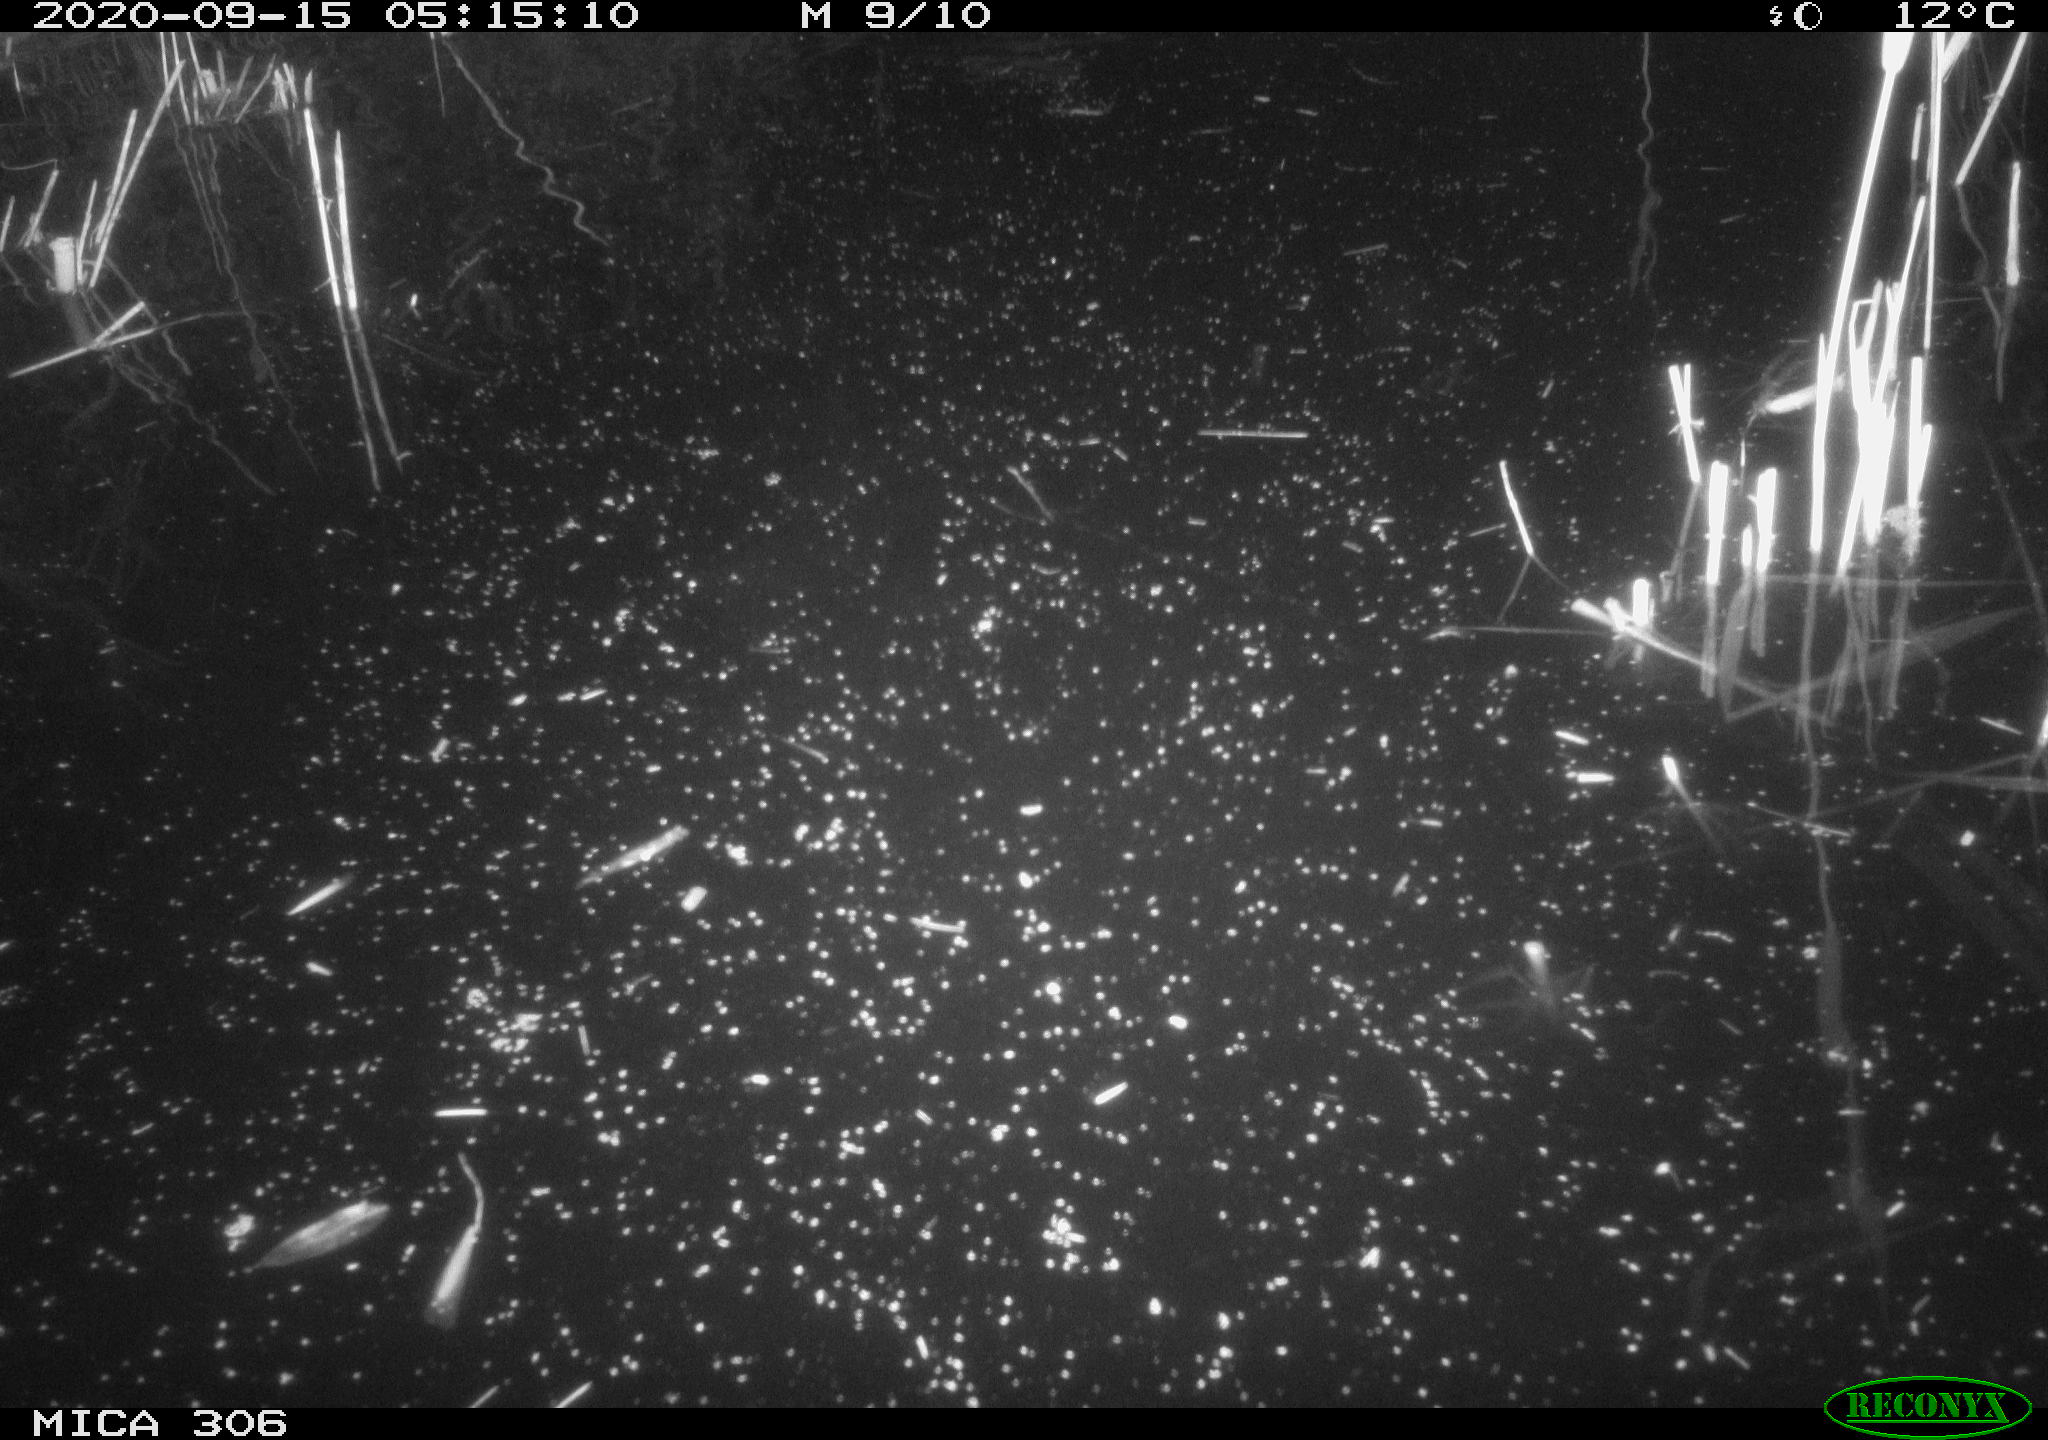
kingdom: Animalia
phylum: Chordata
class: Mammalia
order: Rodentia
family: Muridae
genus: Rattus
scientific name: Rattus norvegicus
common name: Brown rat
